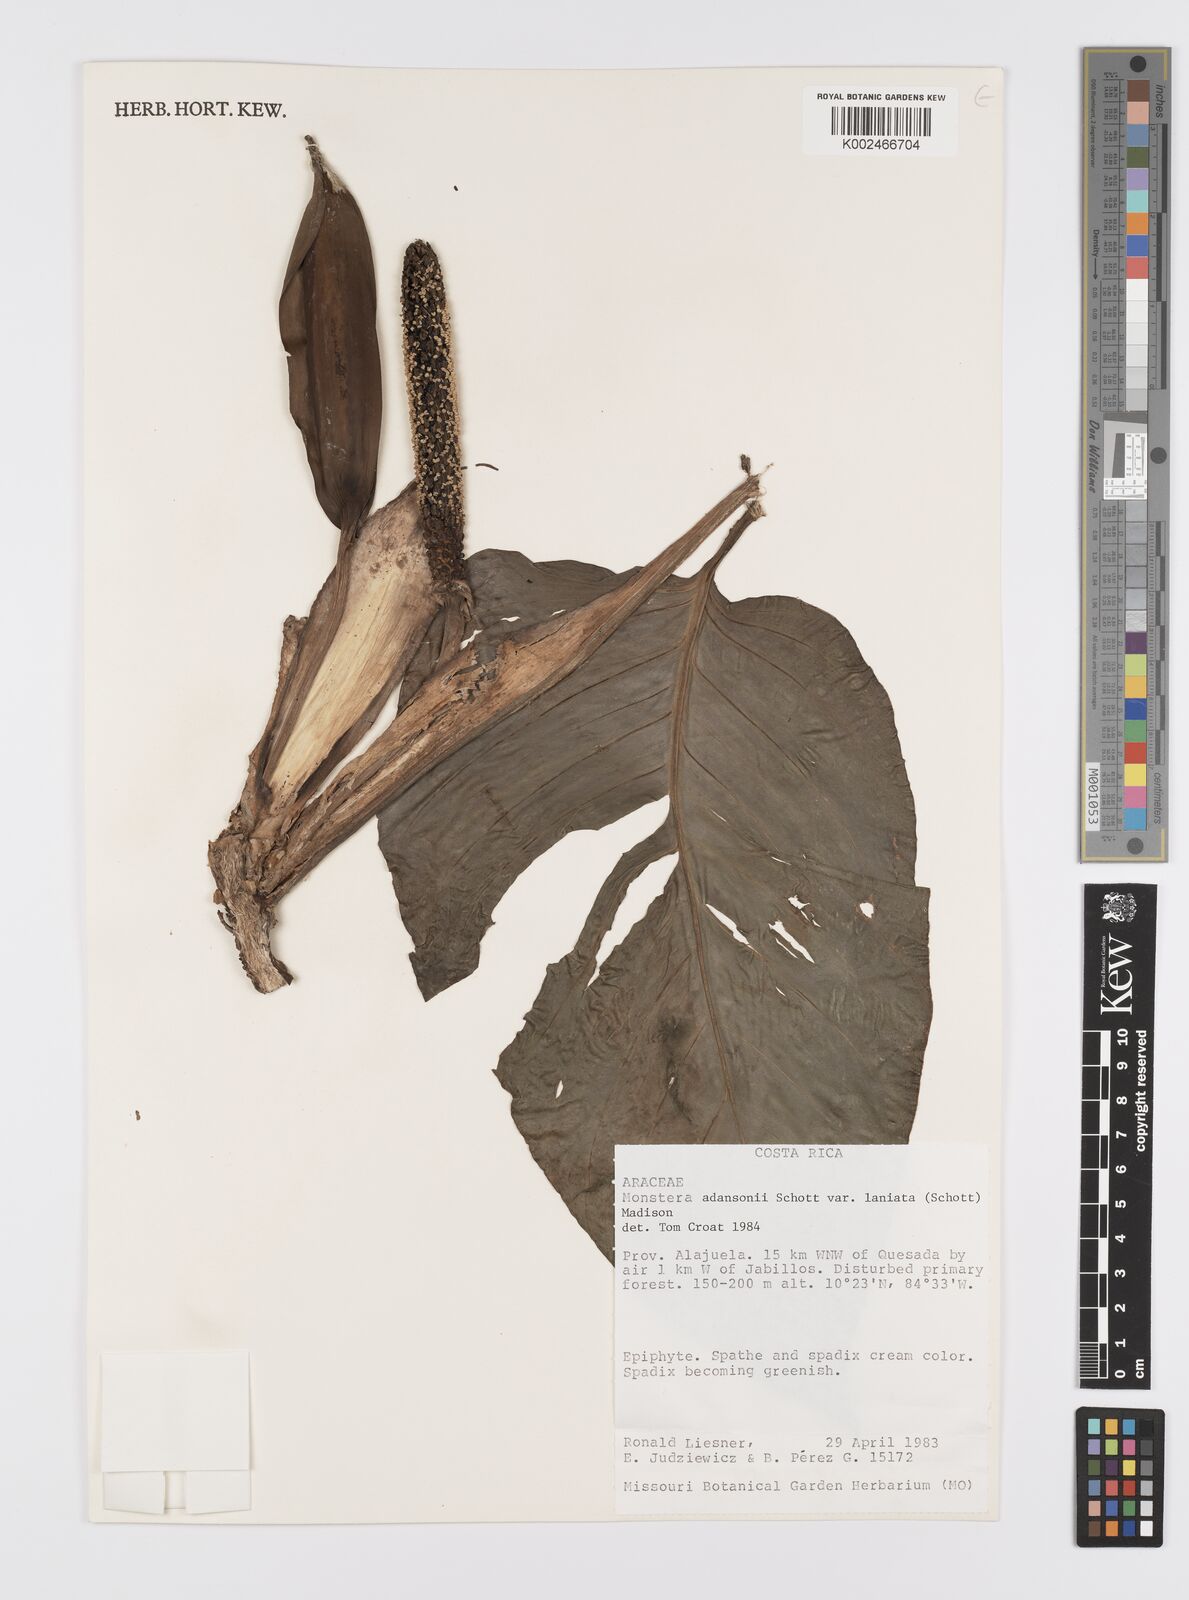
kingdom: Plantae
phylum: Tracheophyta
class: Liliopsida
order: Alismatales
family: Araceae
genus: Monstera
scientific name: Monstera adansonii
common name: Tarovine
